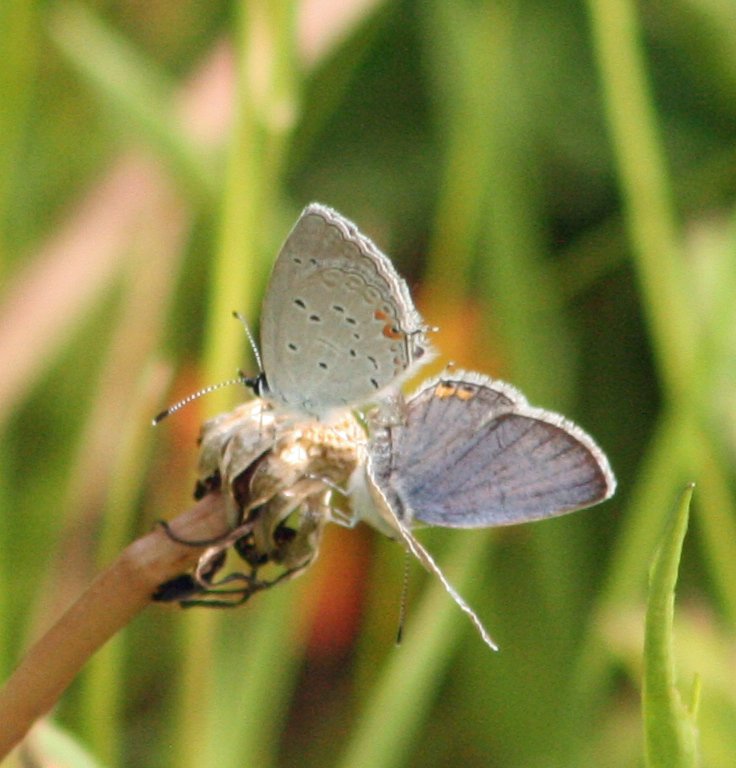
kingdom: Animalia
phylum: Arthropoda
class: Insecta
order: Lepidoptera
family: Lycaenidae
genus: Elkalyce
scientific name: Elkalyce comyntas
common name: Eastern Tailed-Blue
